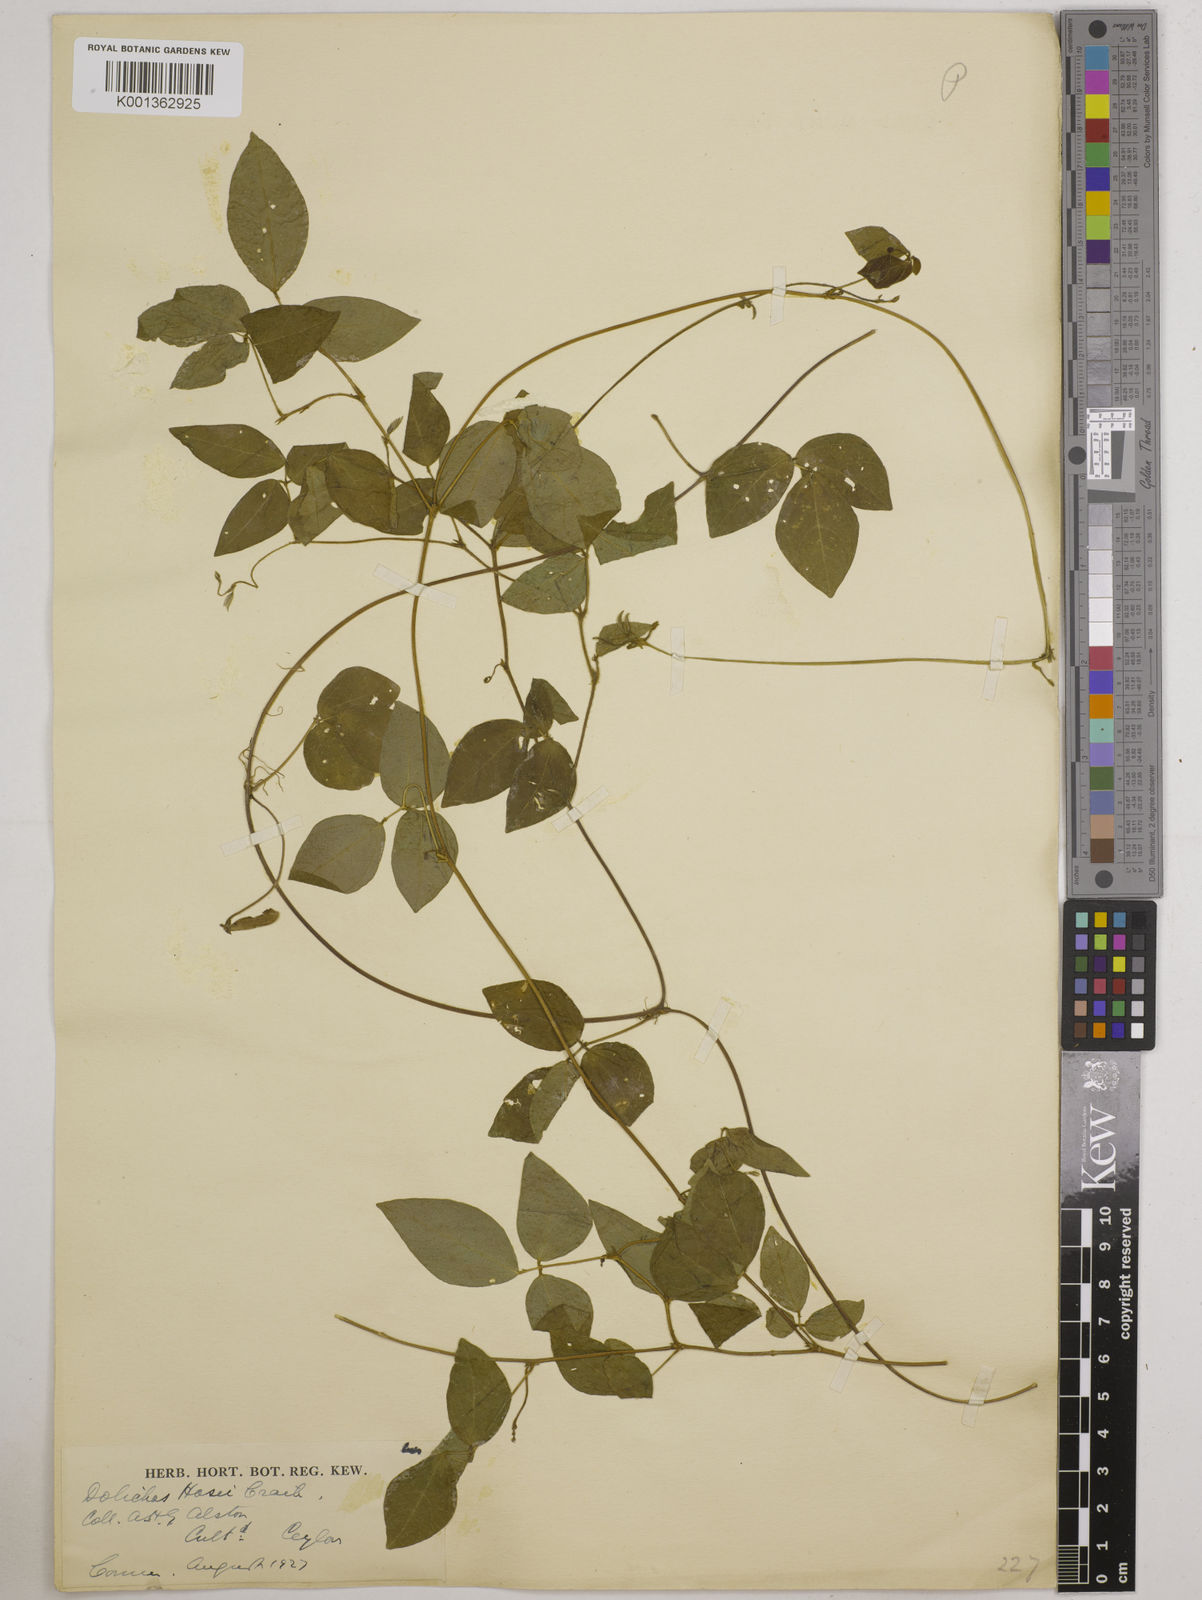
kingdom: Plantae
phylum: Tracheophyta
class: Magnoliopsida
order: Fabales
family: Fabaceae
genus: Vigna
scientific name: Vigna hosei
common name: Sarawak-bean
